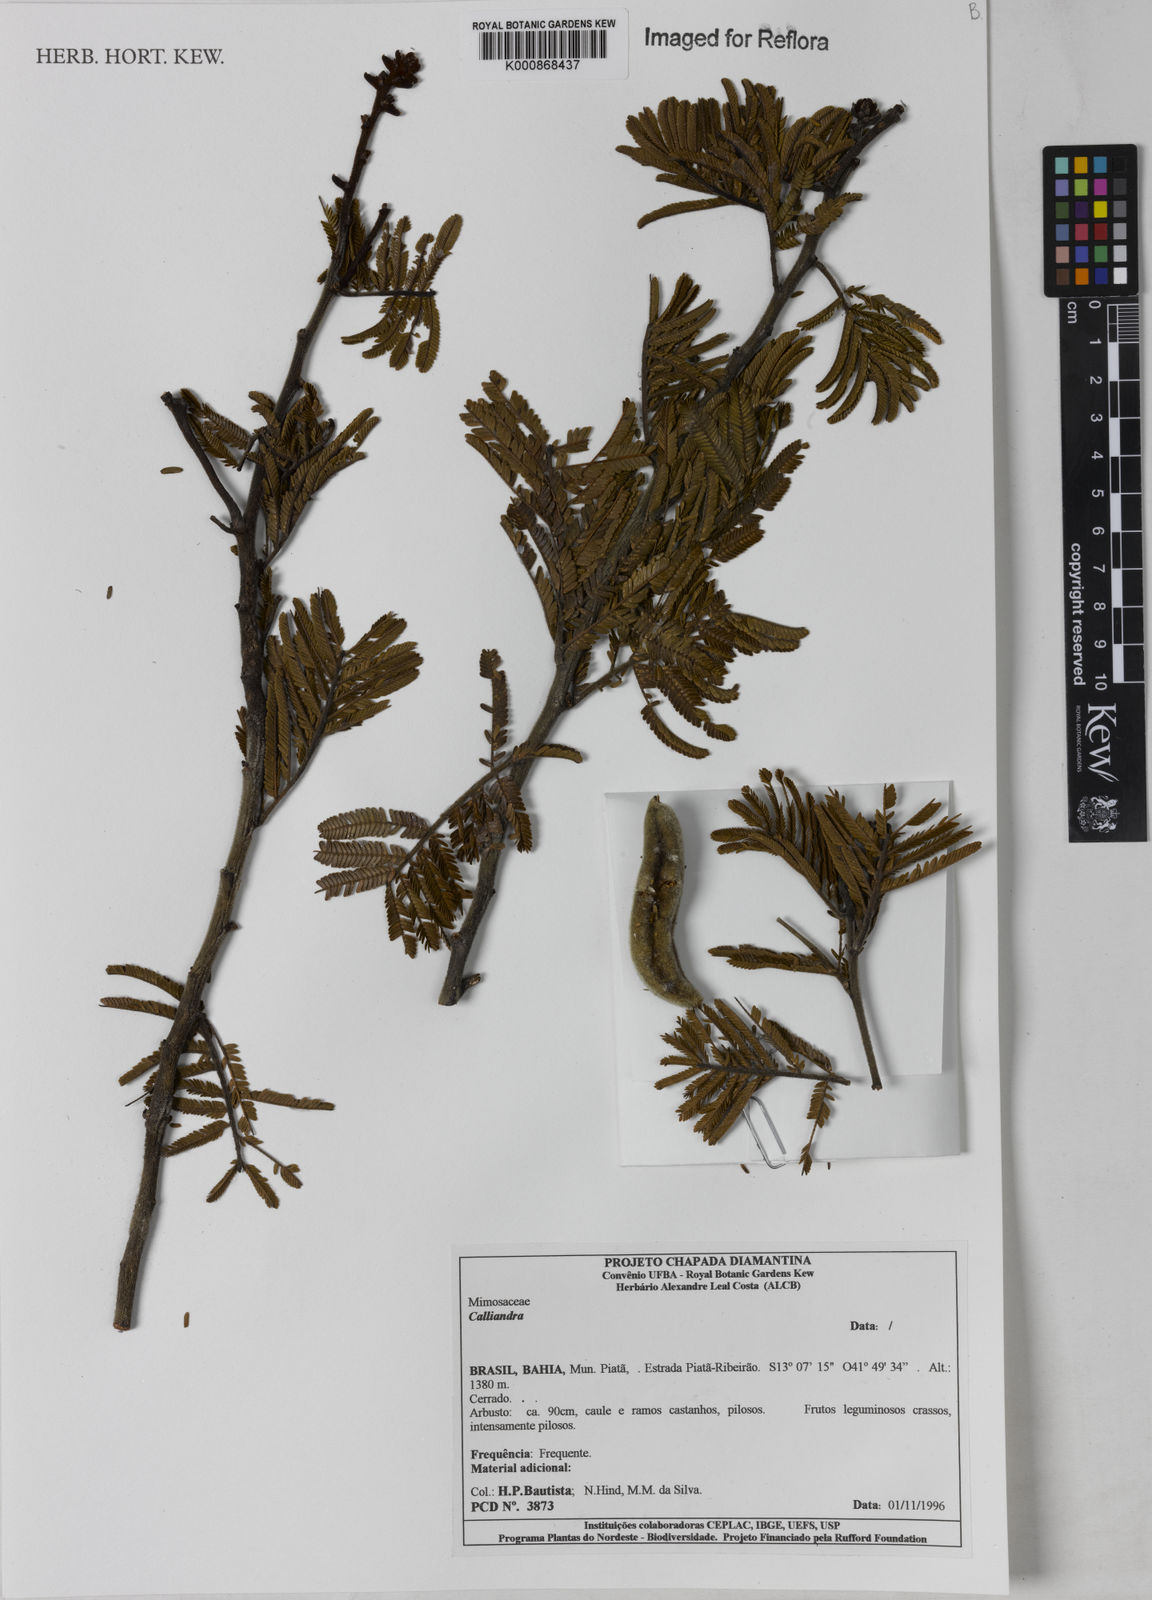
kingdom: Plantae
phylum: Tracheophyta
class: Magnoliopsida
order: Fabales
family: Fabaceae
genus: Calliandra
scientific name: Calliandra
